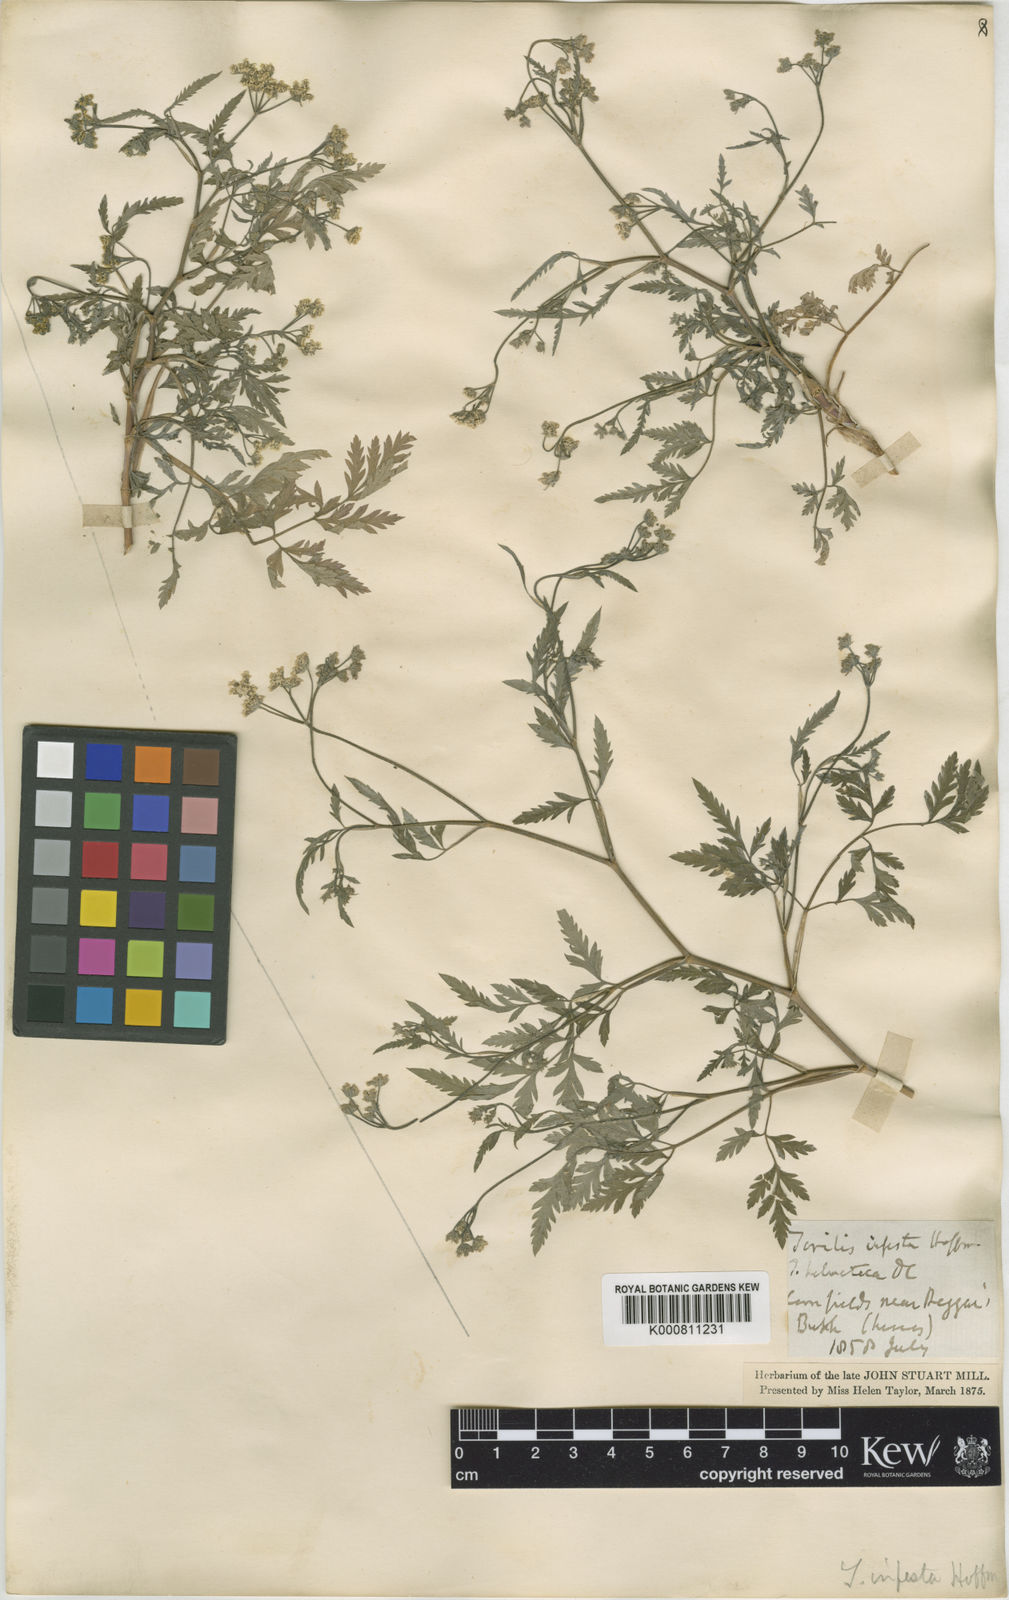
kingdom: Plantae
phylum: Tracheophyta
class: Magnoliopsida
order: Apiales
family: Apiaceae
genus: Torilis
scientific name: Torilis arvensis
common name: Spreading hedge-parsley
